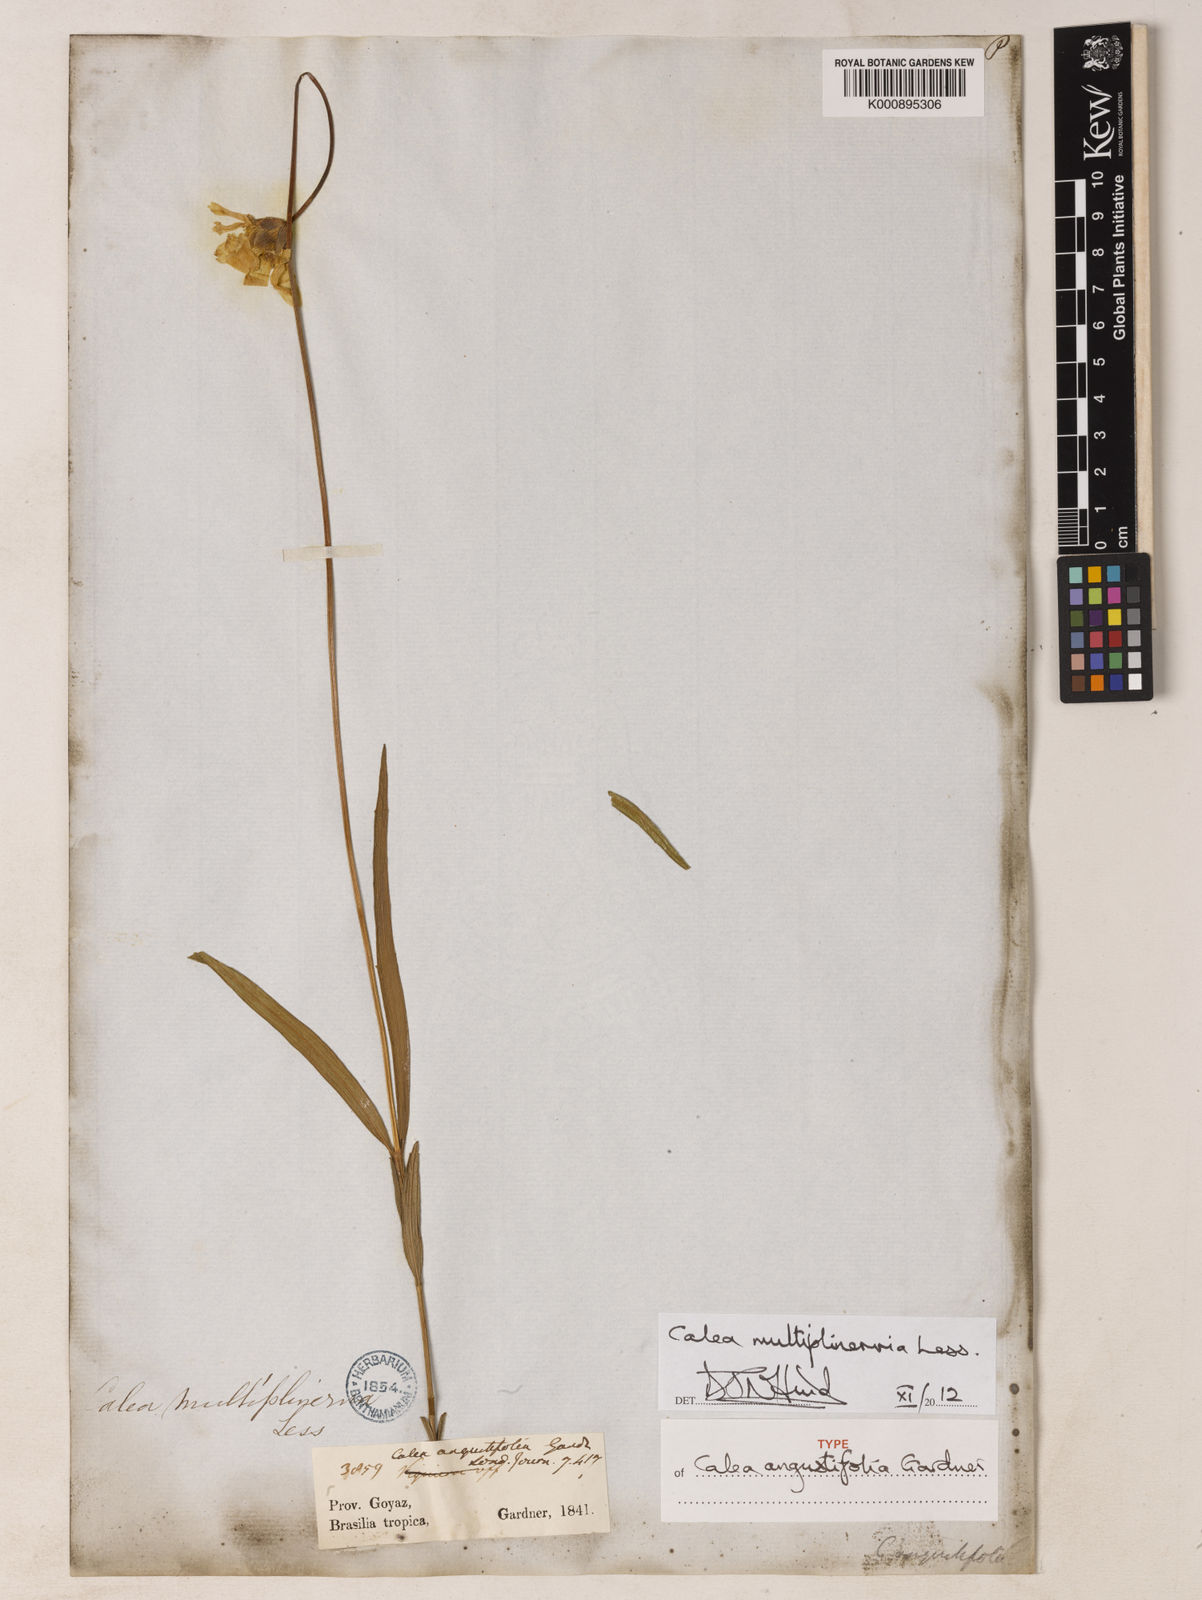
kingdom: Plantae
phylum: Tracheophyta
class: Magnoliopsida
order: Asterales
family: Asteraceae
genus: Calea
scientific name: Calea multiplinervia
